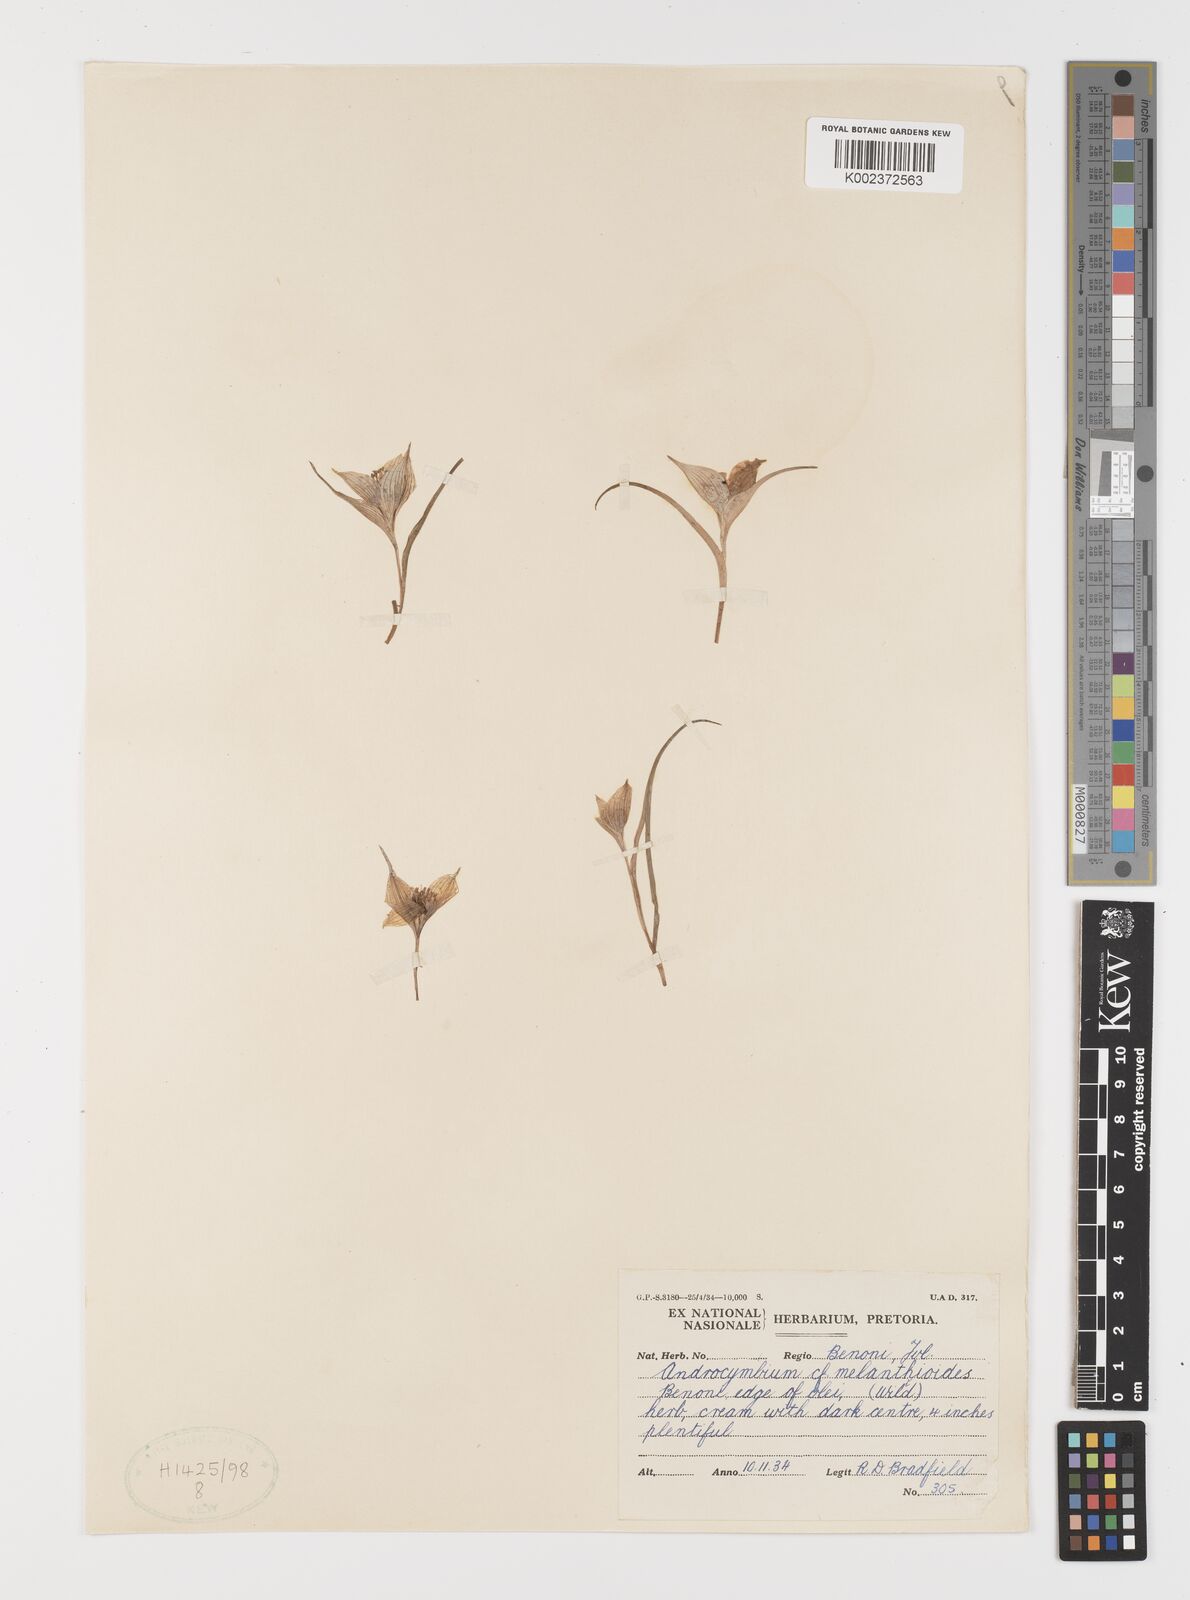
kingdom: Plantae
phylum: Tracheophyta
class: Liliopsida
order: Liliales
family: Colchicaceae
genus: Colchicum
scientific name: Colchicum melanthioides
